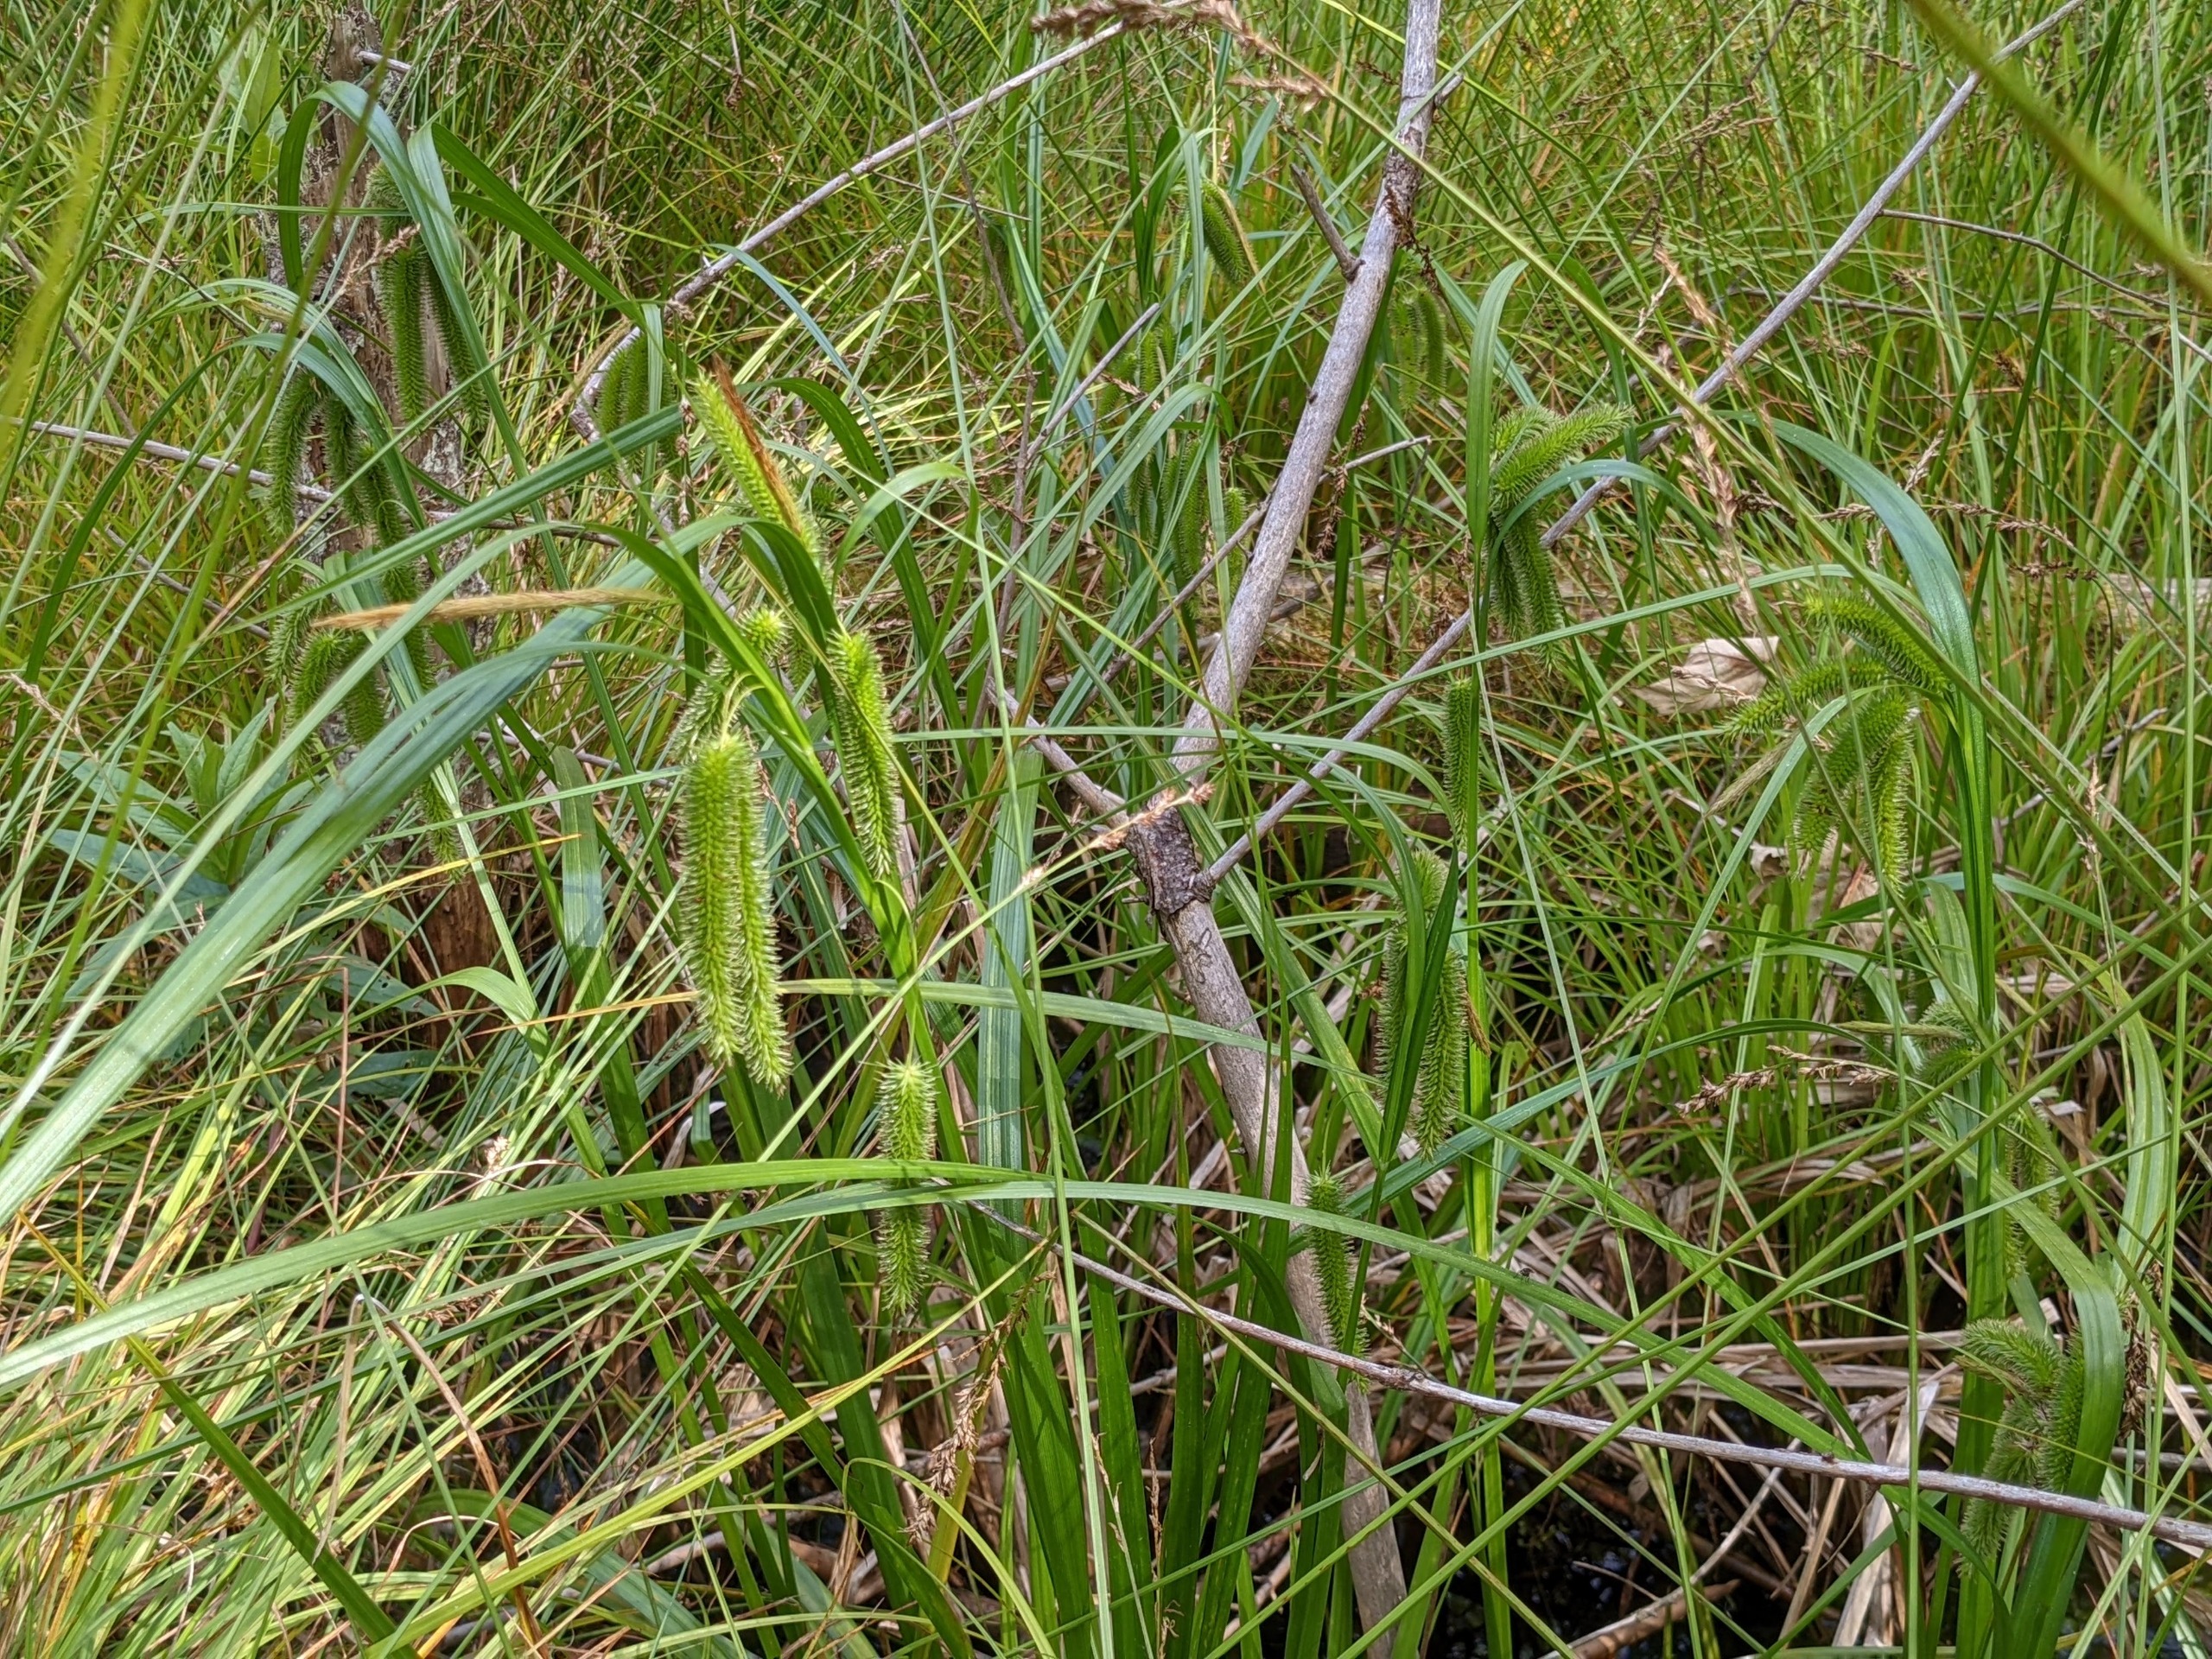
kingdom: Plantae
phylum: Tracheophyta
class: Liliopsida
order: Poales
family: Cyperaceae
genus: Carex
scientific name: Carex pseudocyperus
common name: Knippe-star
